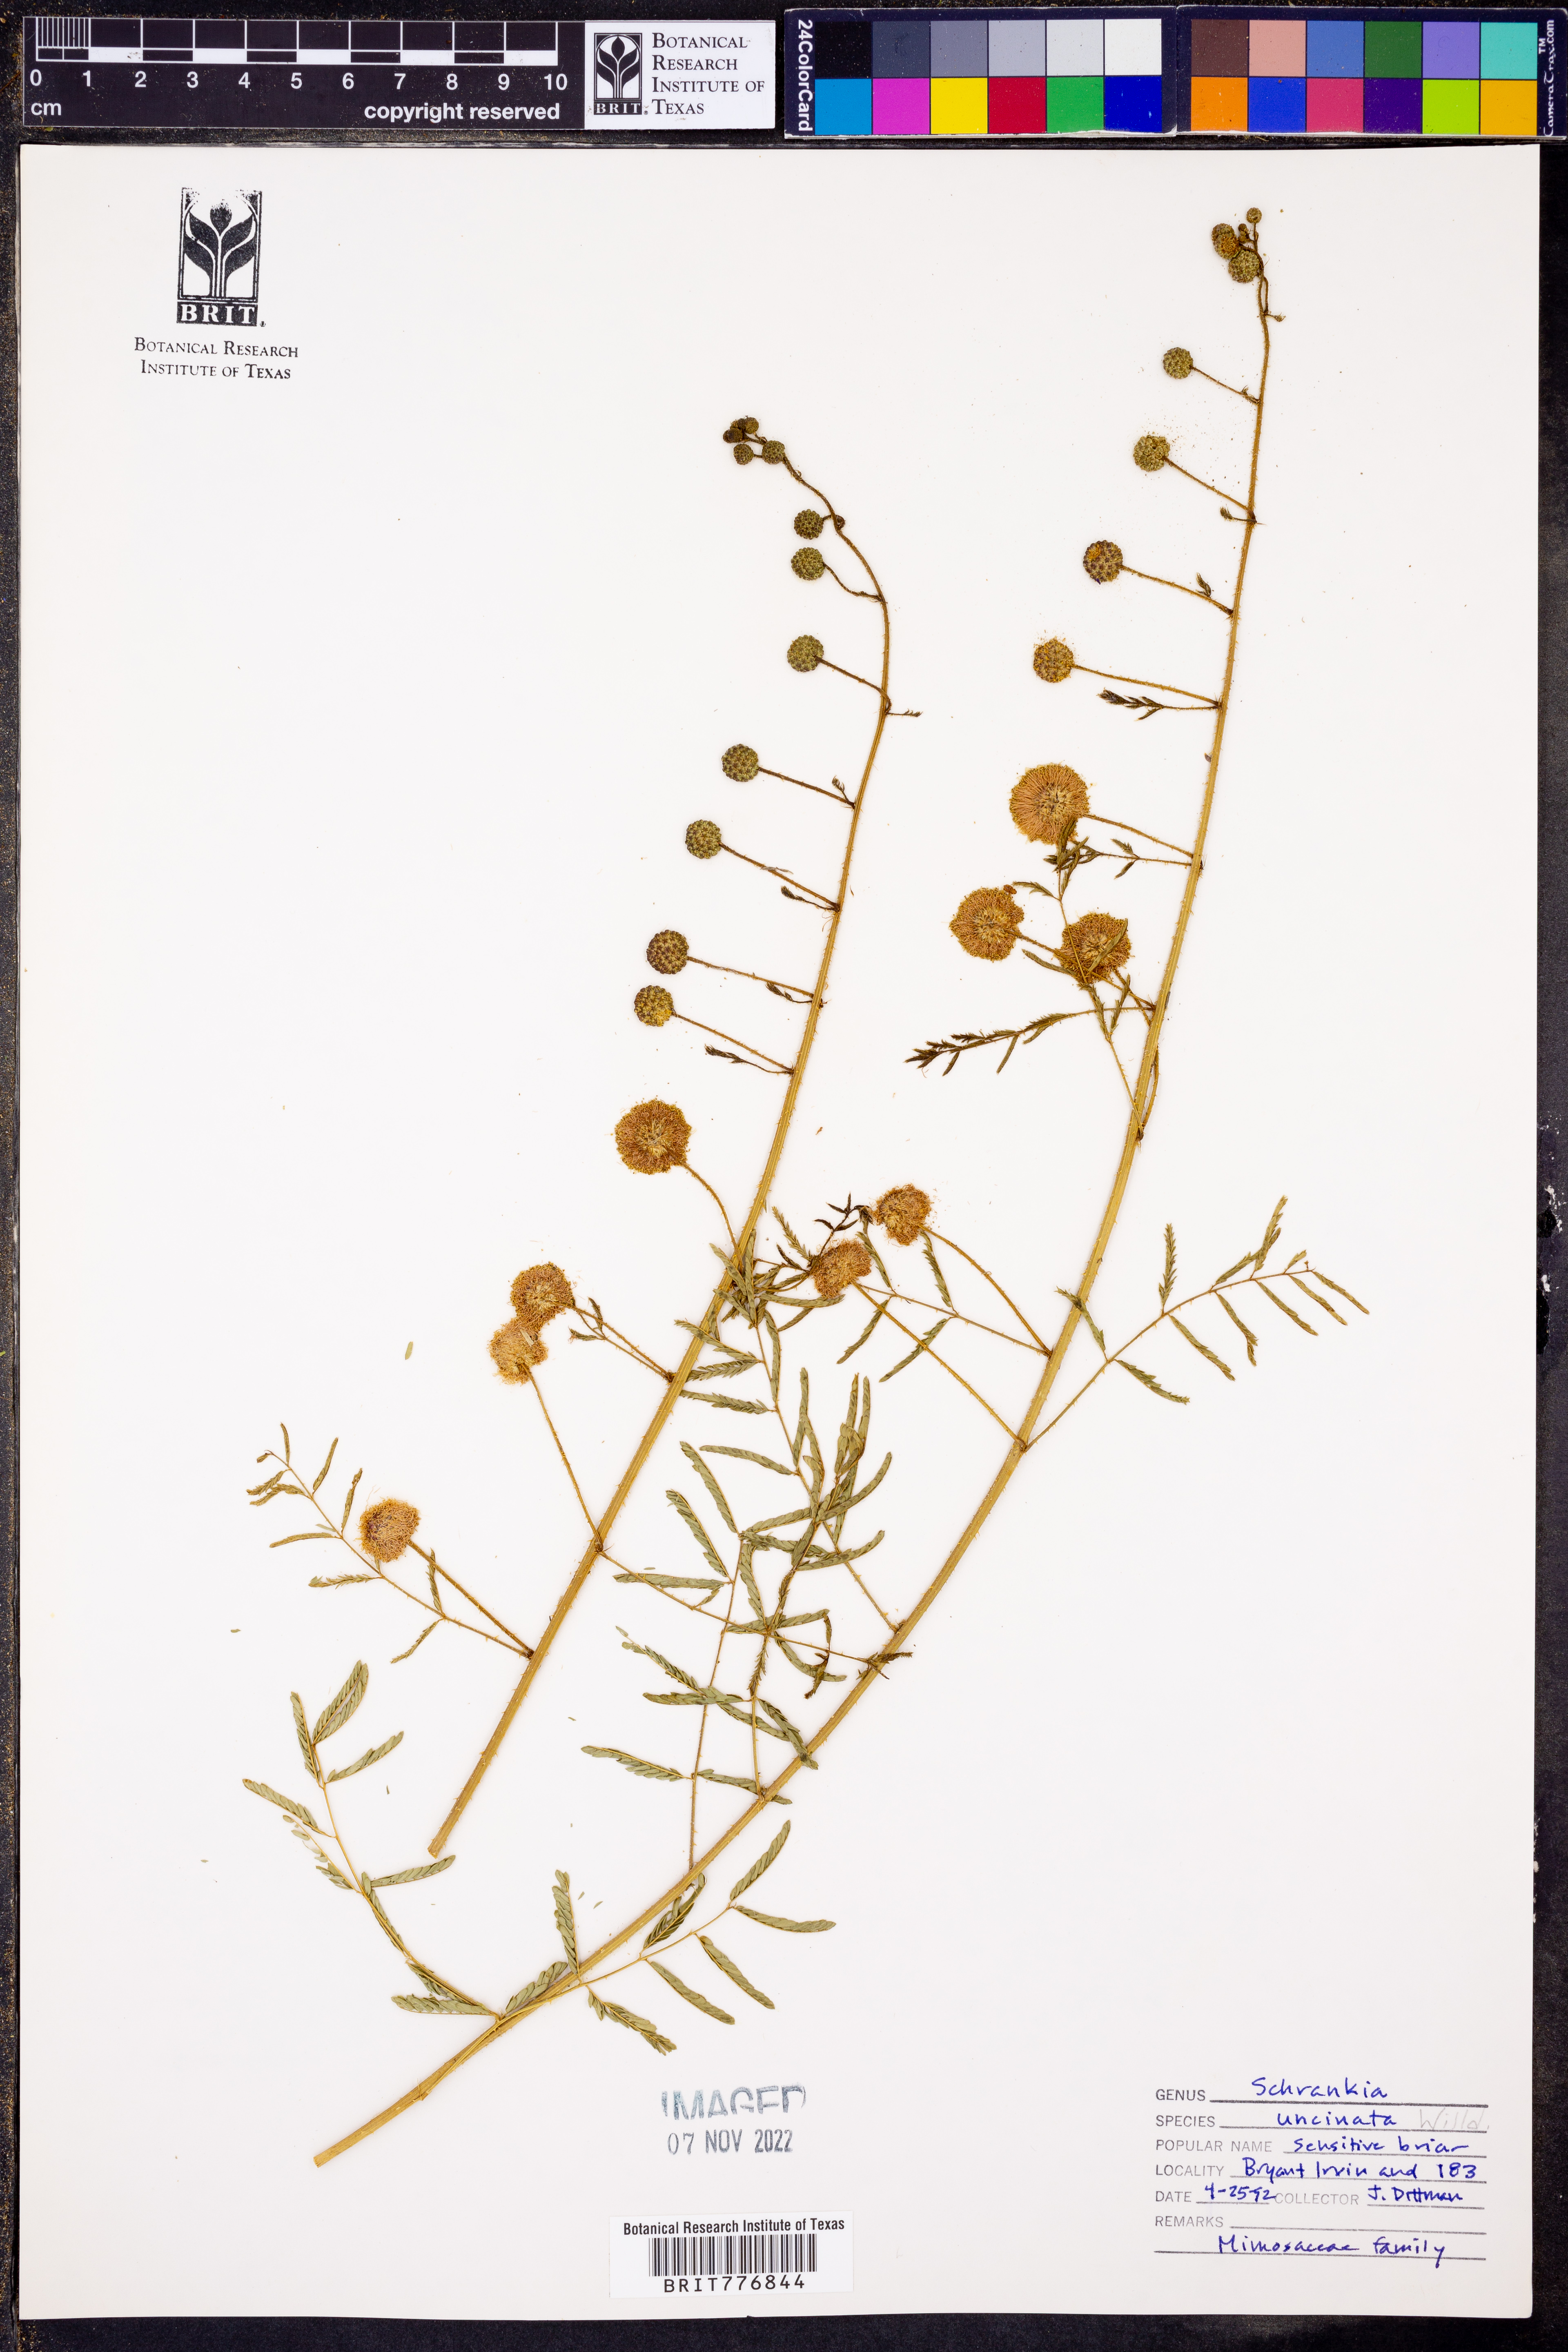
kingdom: Plantae
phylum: Tracheophyta
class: Magnoliopsida
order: Fabales
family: Fabaceae
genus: Mimosa
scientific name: Mimosa quadrivalvis
